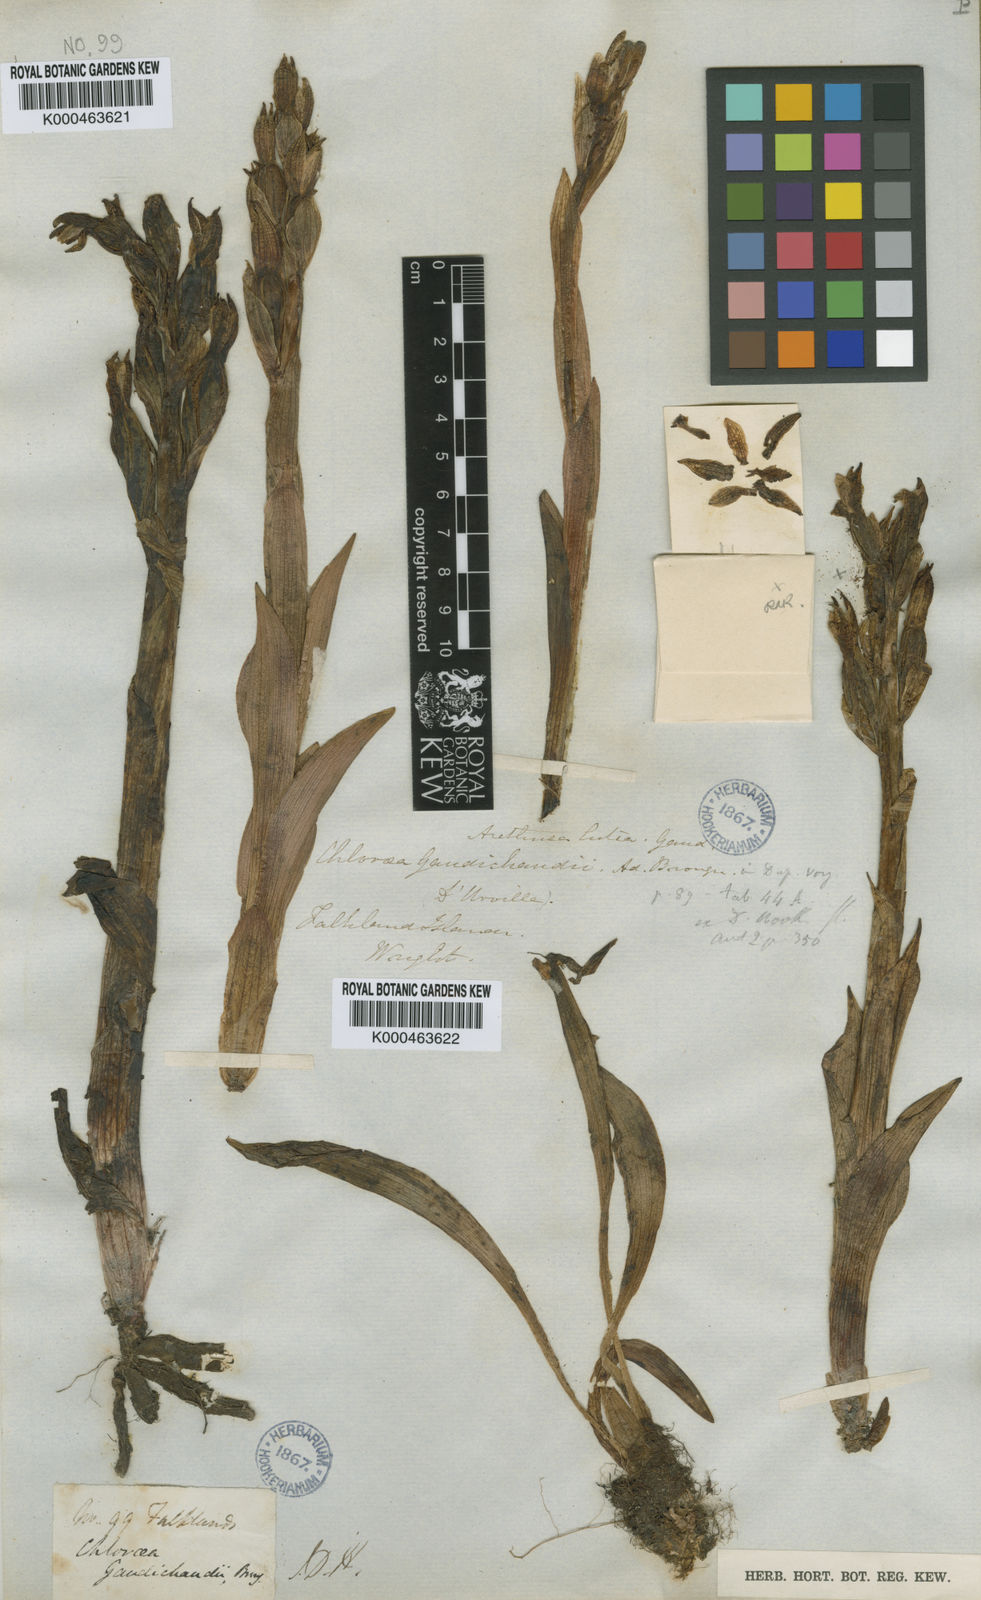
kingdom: Plantae
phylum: Tracheophyta
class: Liliopsida
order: Asparagales
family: Orchidaceae
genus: Chloraea
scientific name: Chloraea fonkii
